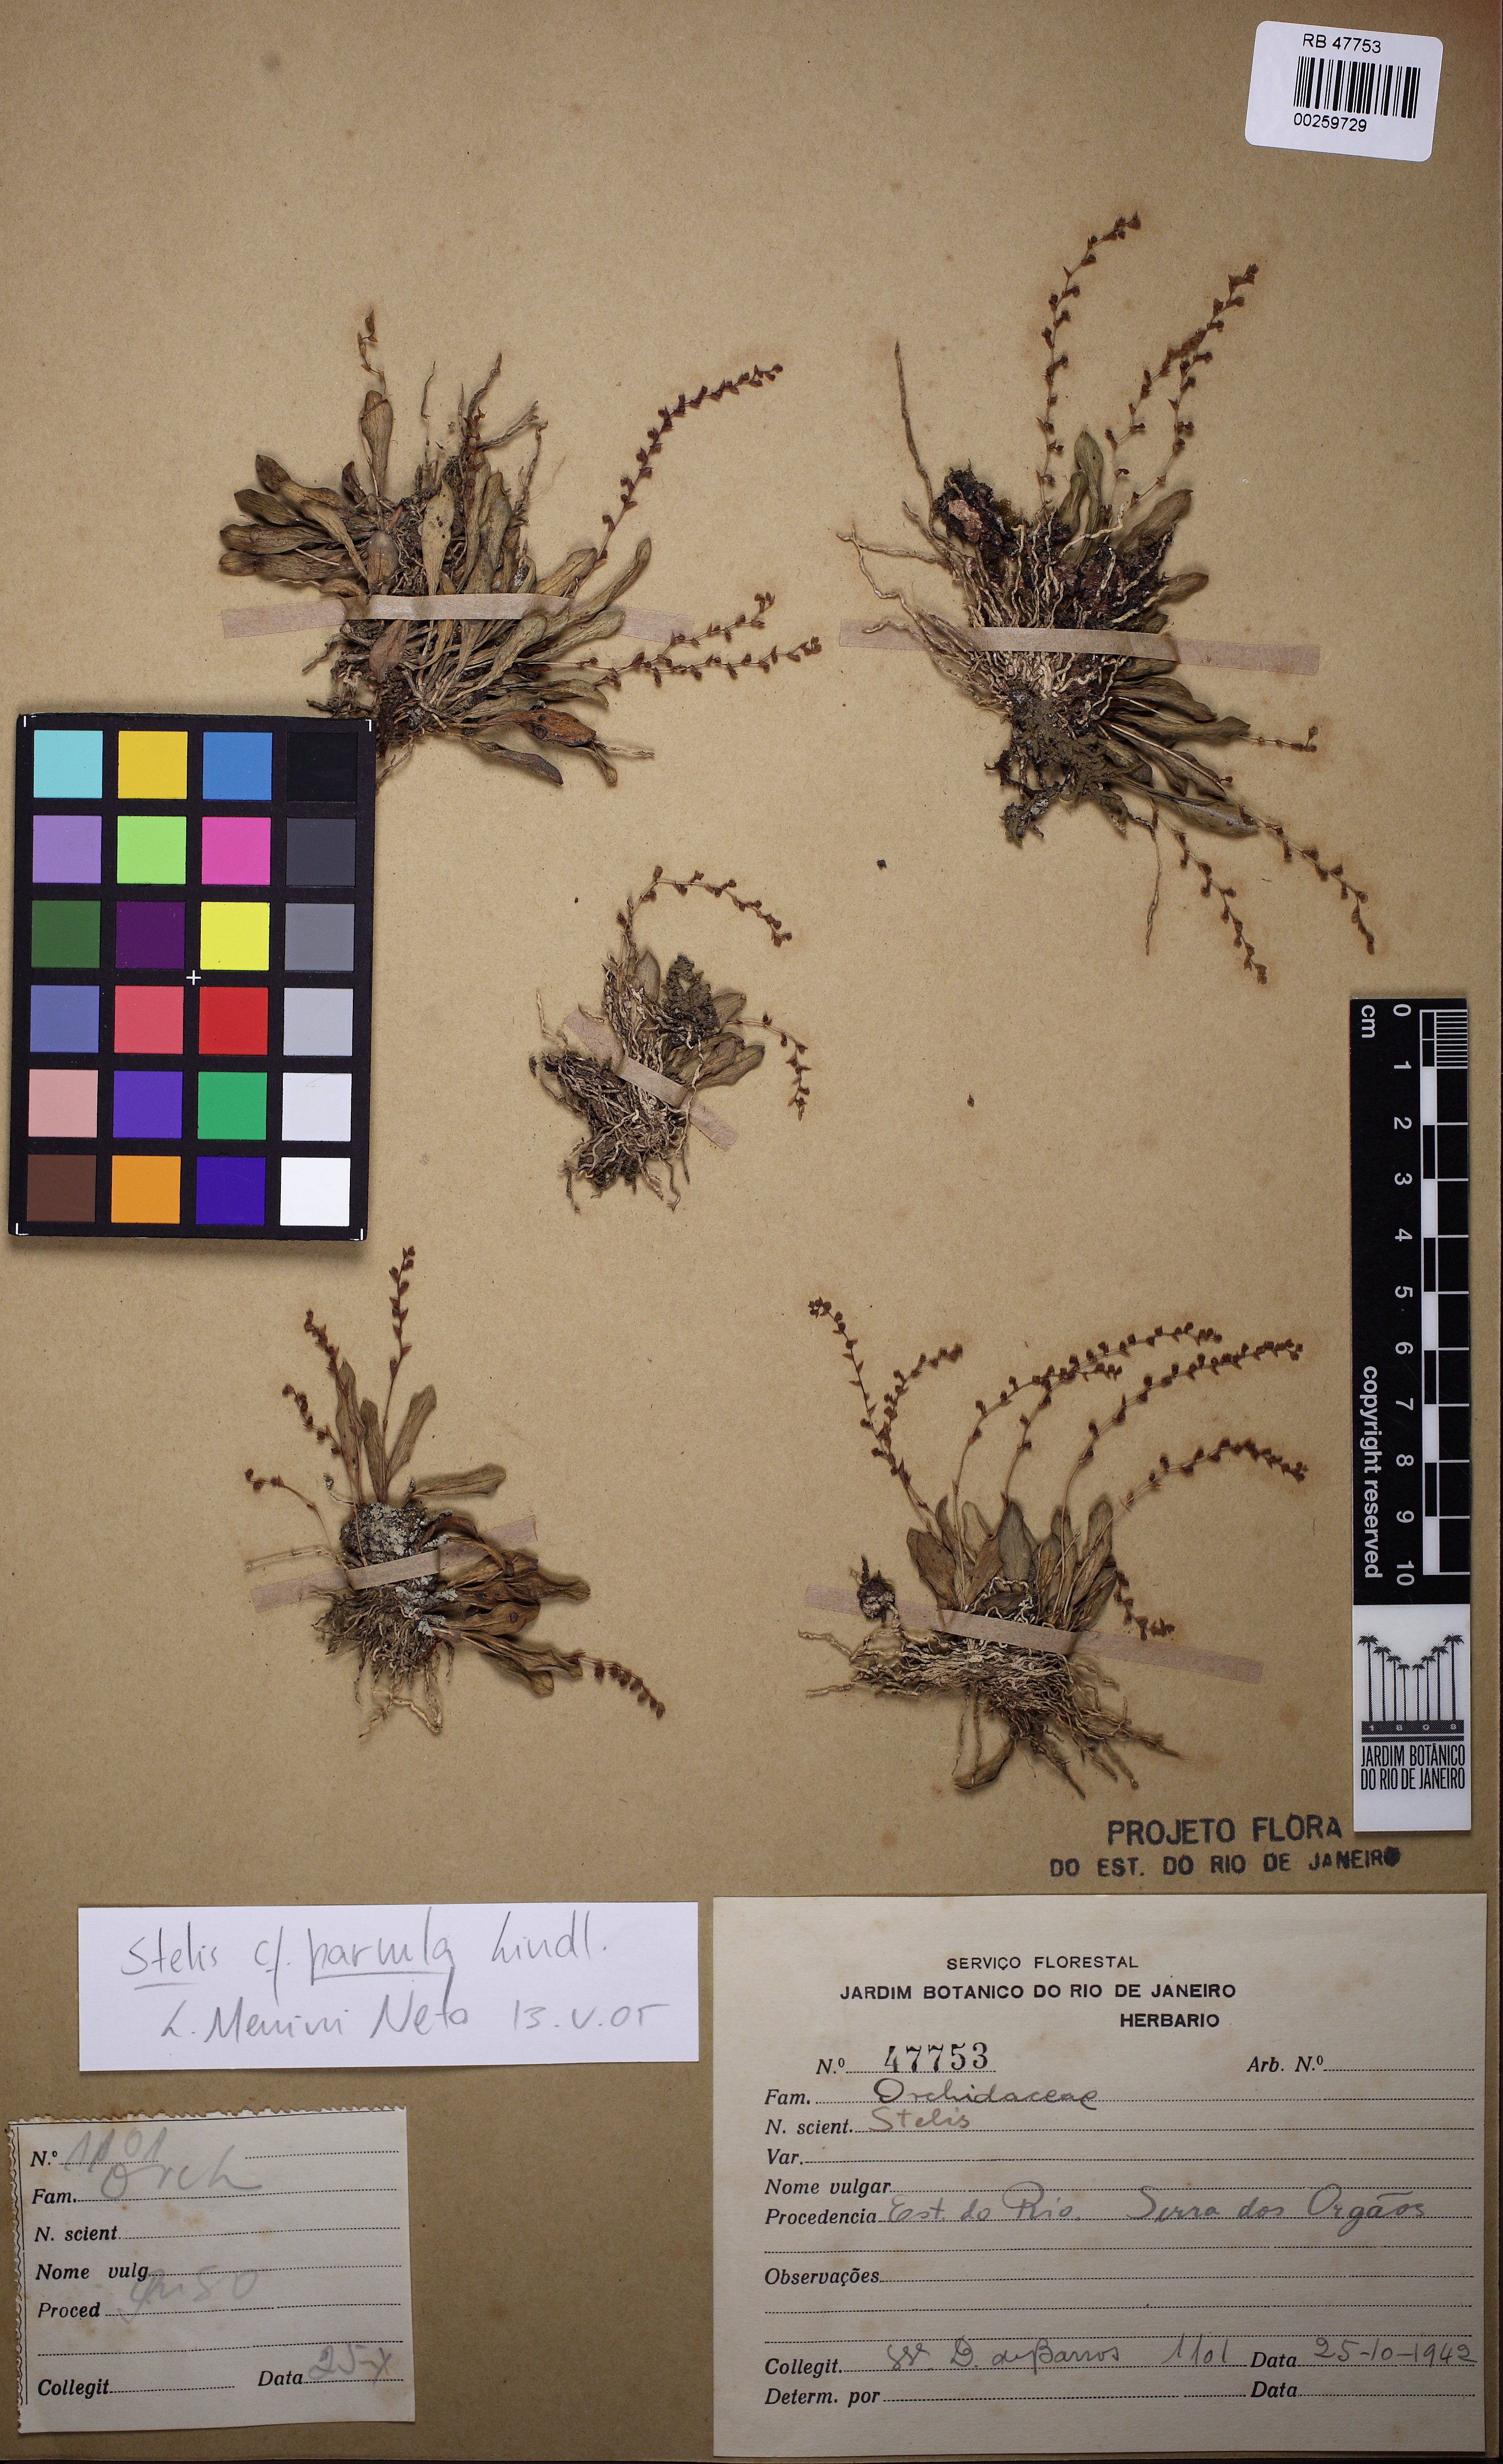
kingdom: Plantae
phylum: Tracheophyta
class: Liliopsida
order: Asparagales
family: Orchidaceae
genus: Stelis
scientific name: Stelis parvula
